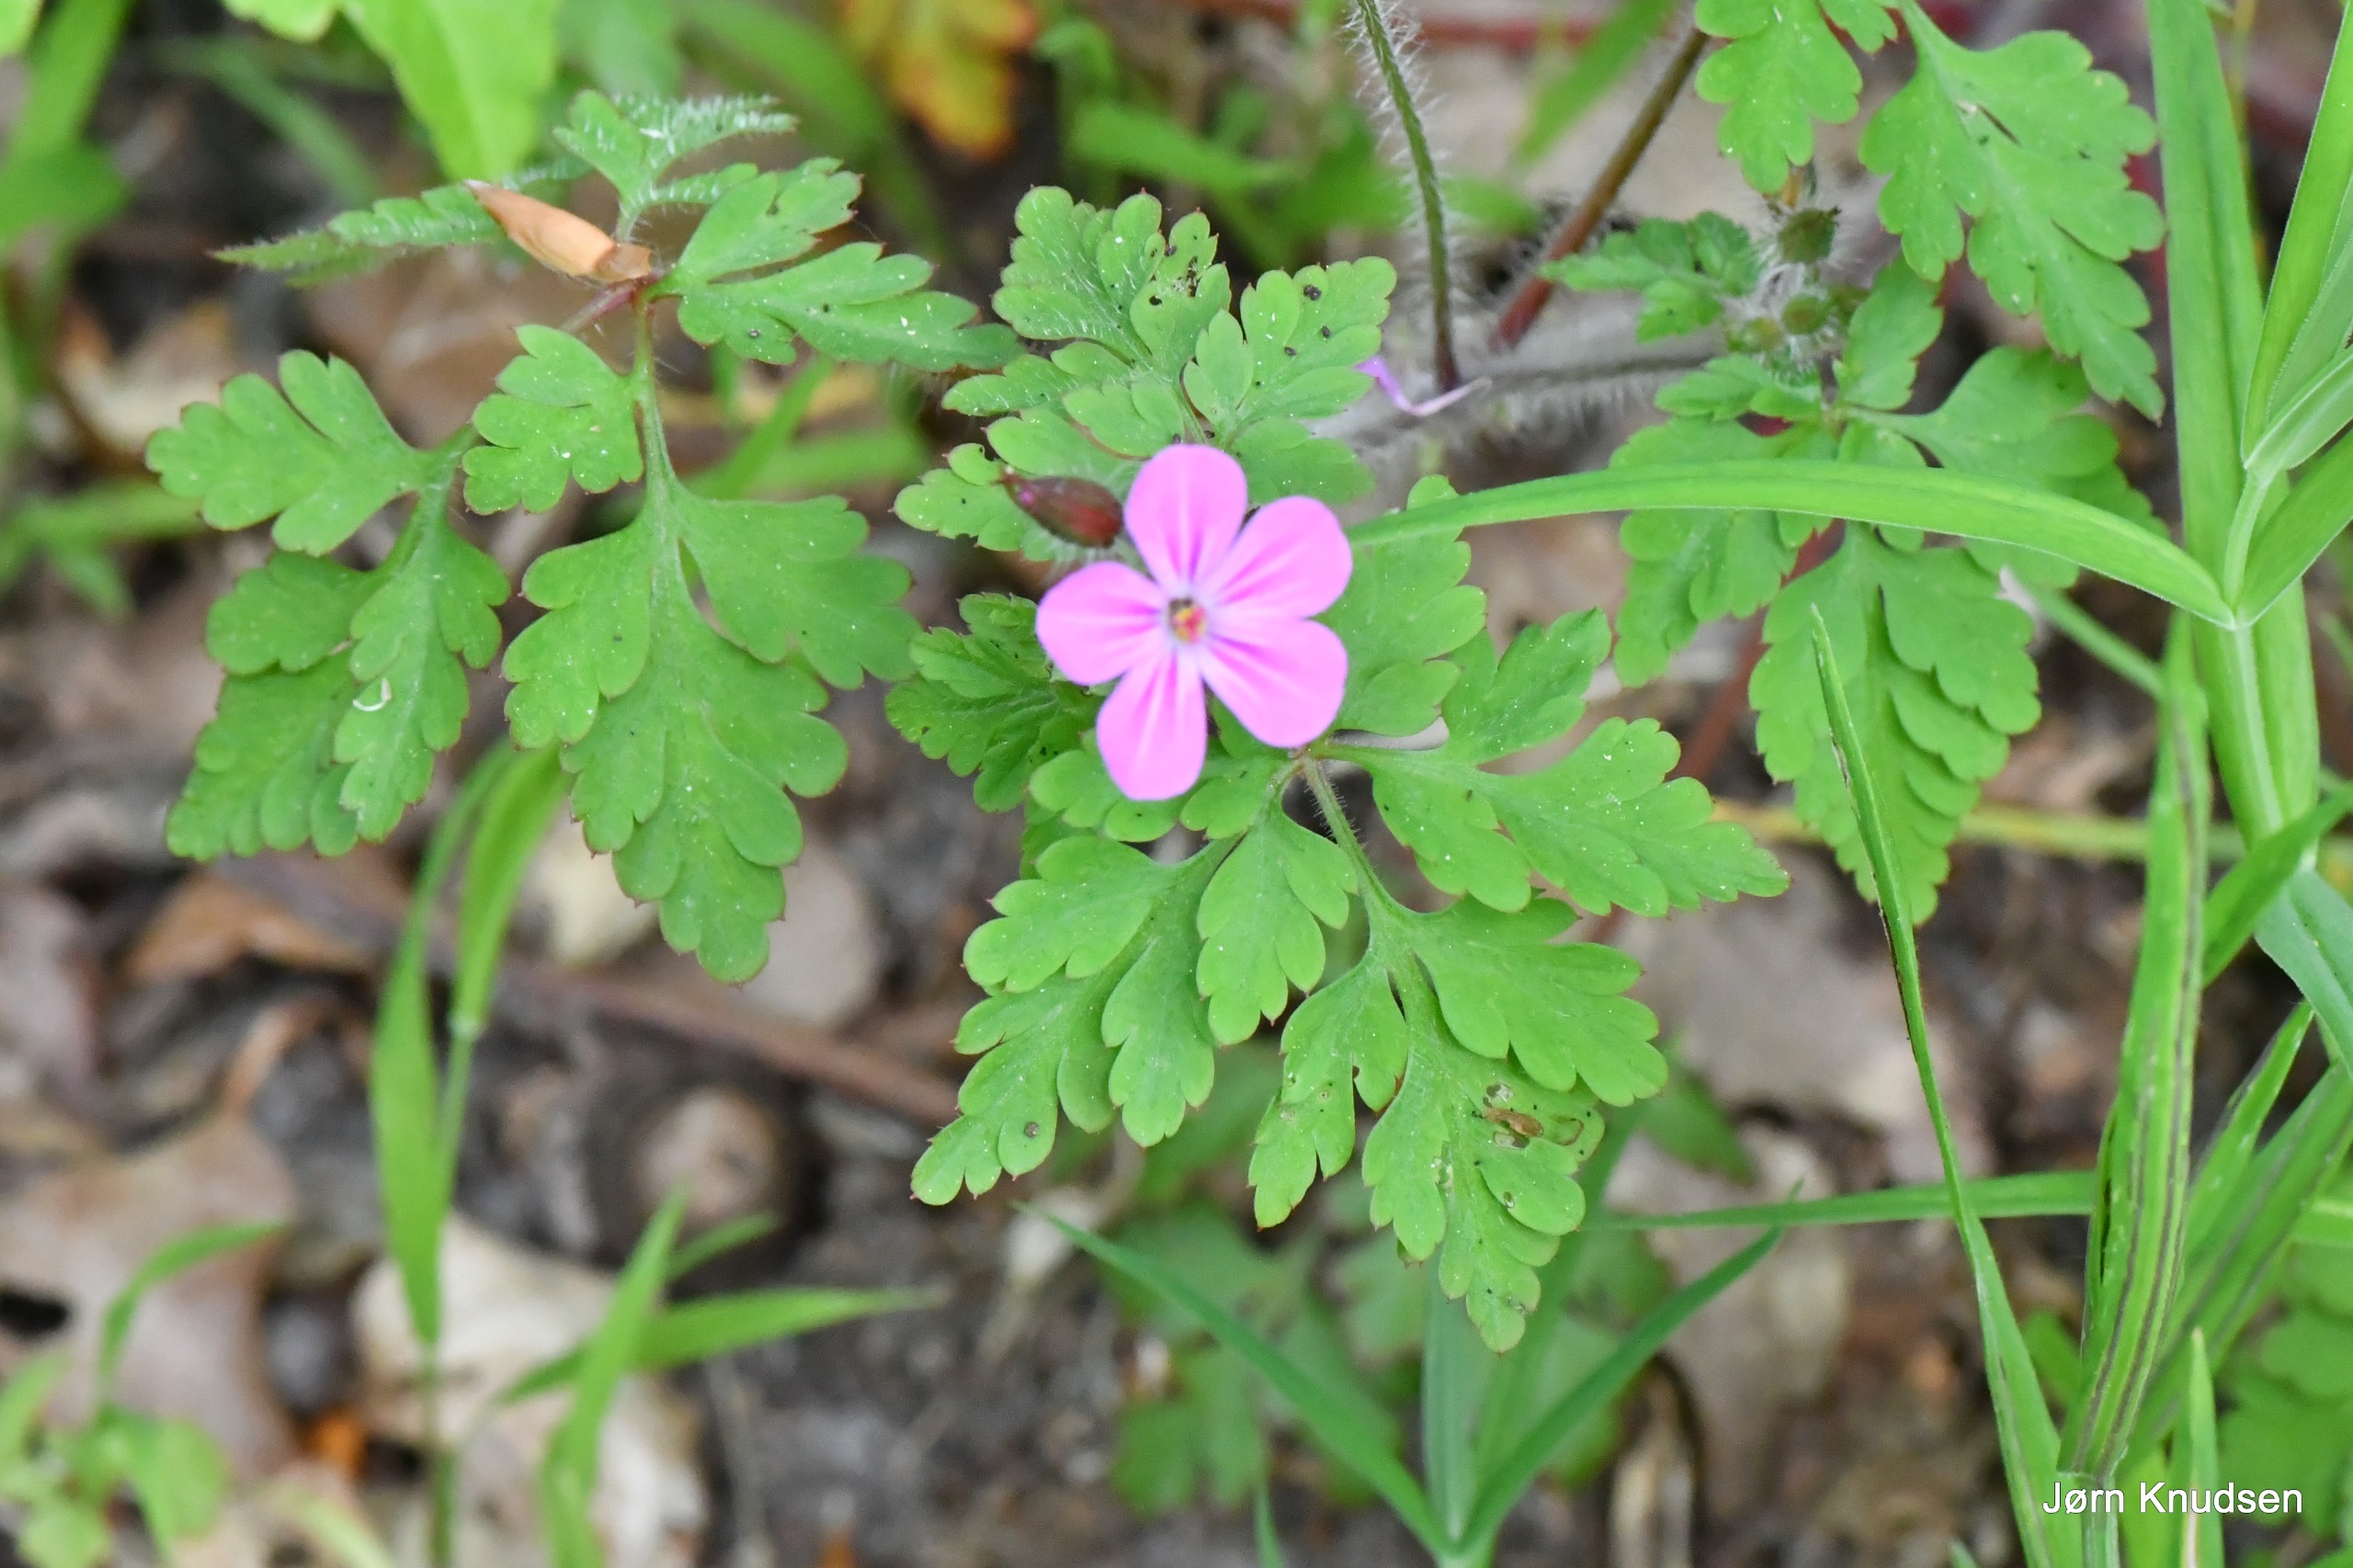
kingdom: Plantae
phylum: Tracheophyta
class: Magnoliopsida
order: Geraniales
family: Geraniaceae
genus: Geranium
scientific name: Geranium robertianum
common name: Stinkende storkenæb
